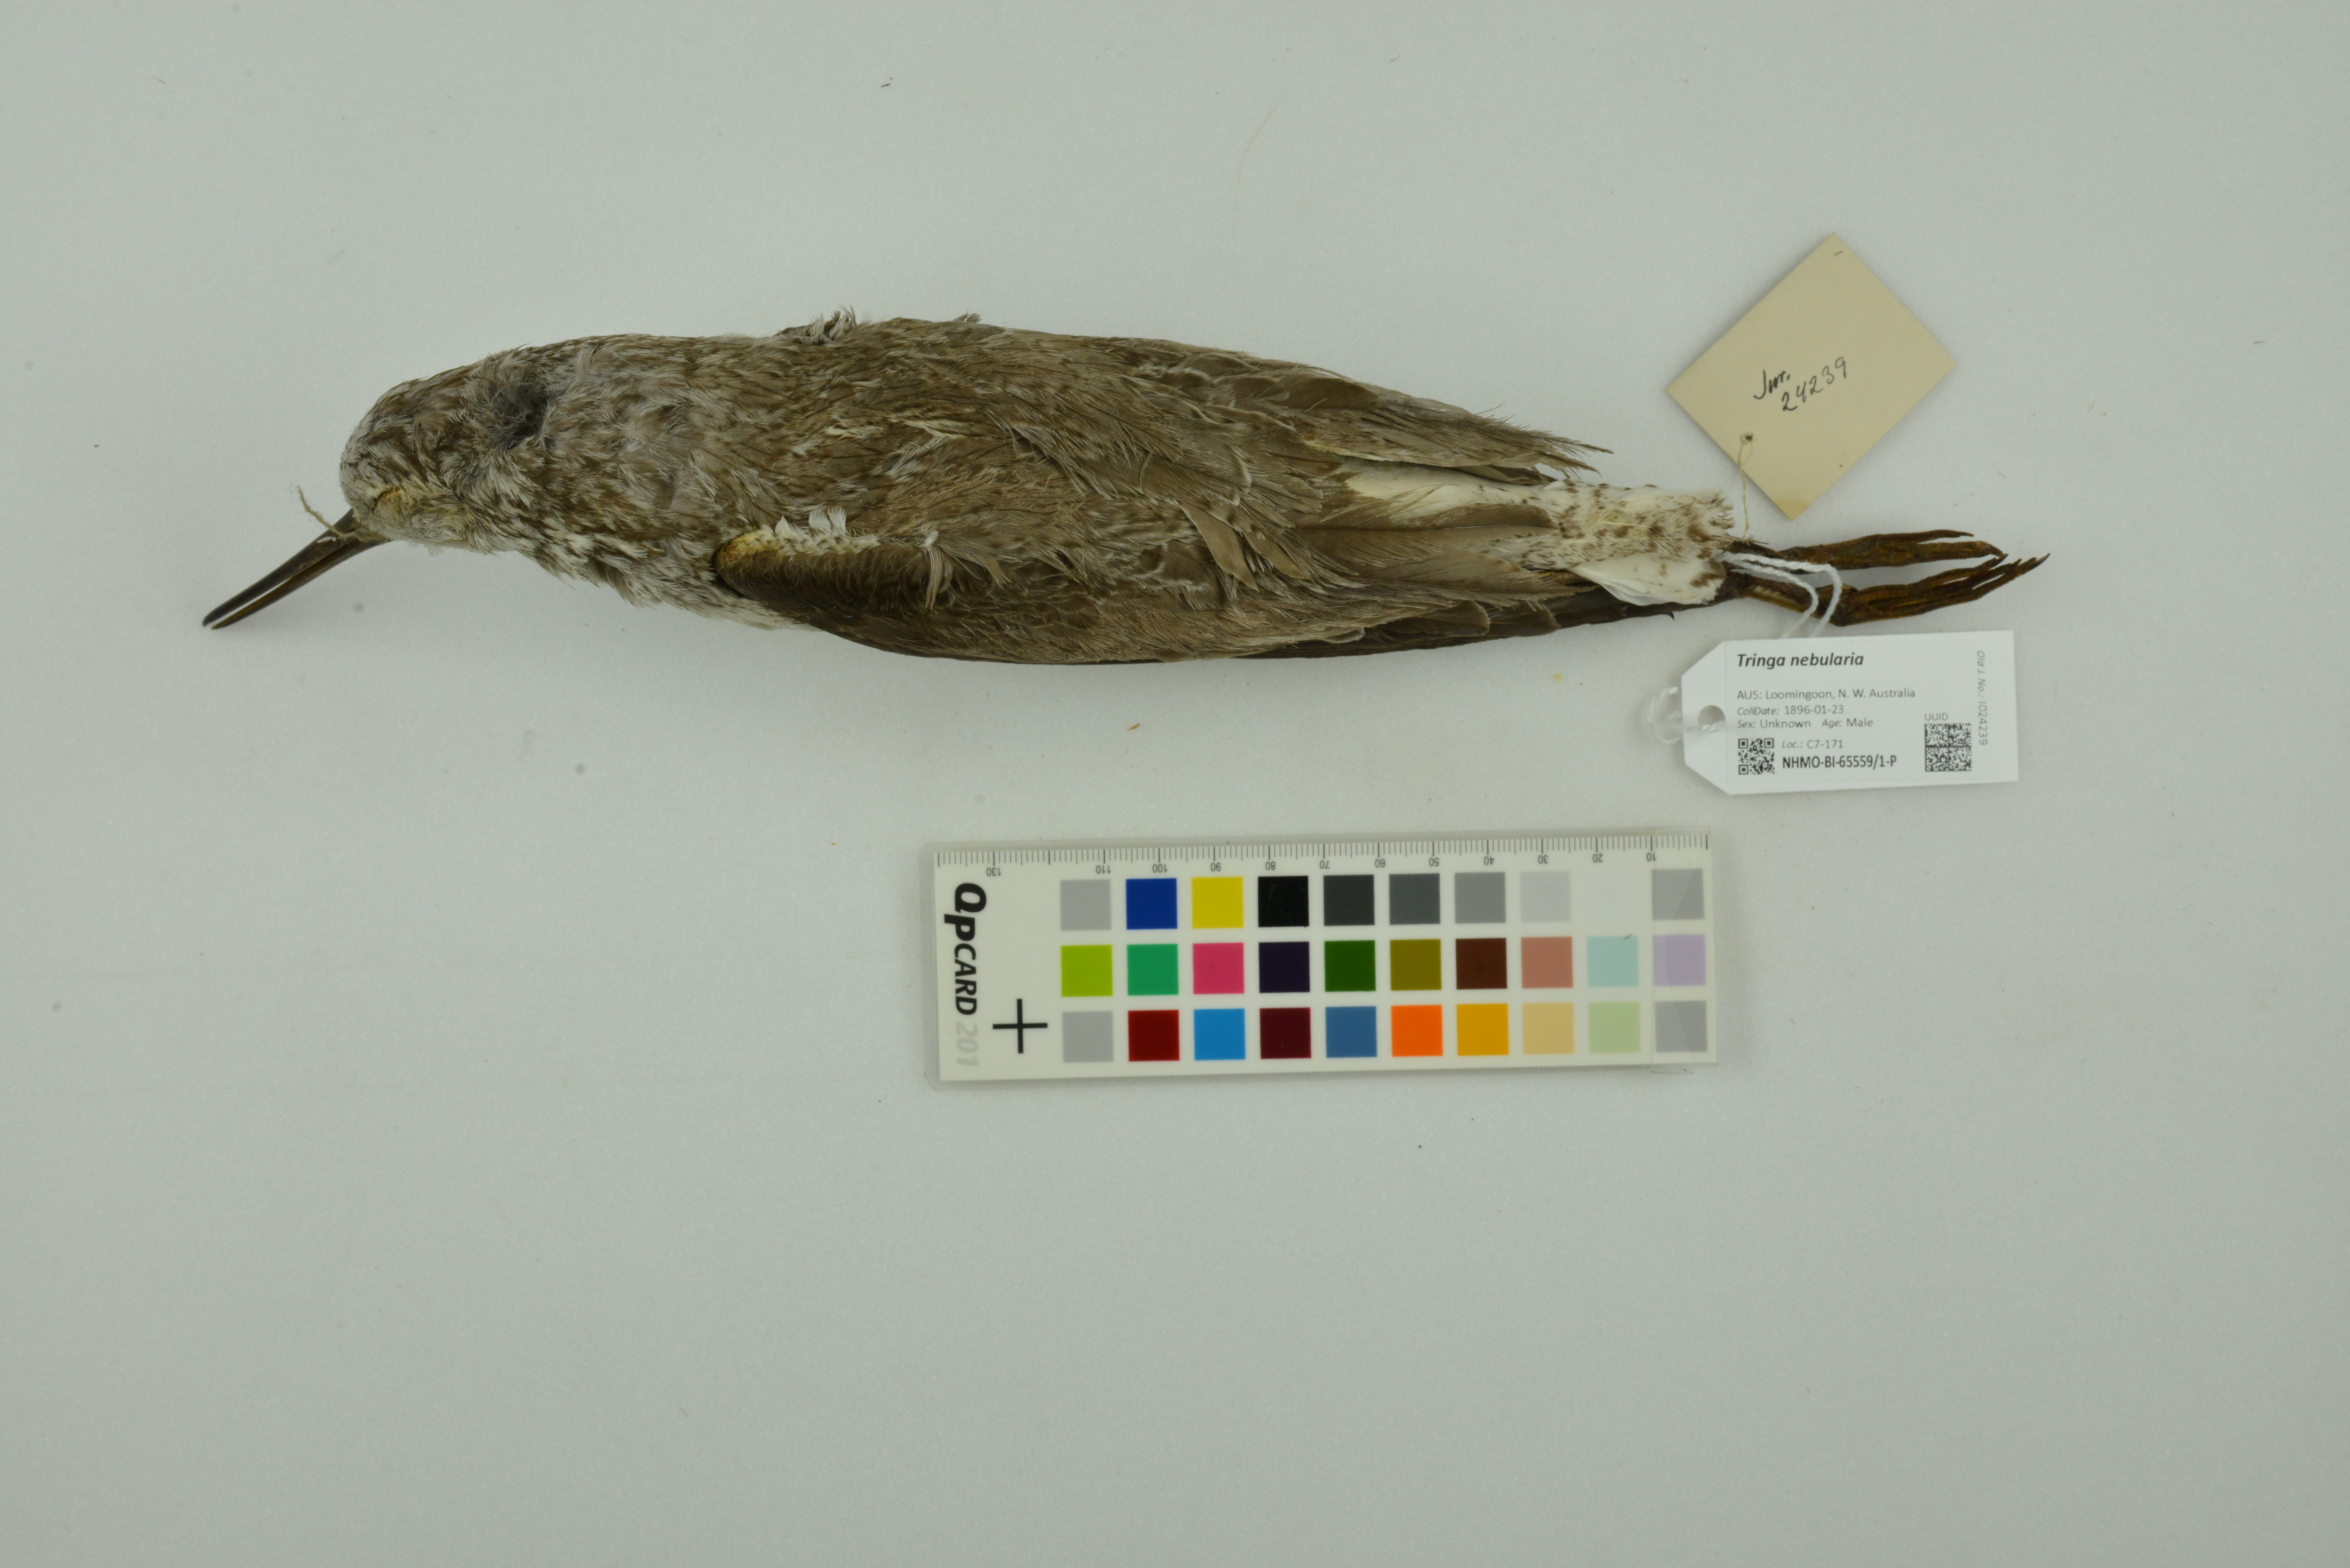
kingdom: Animalia
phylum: Chordata
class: Aves
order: Charadriiformes
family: Scolopacidae
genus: Tringa
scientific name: Tringa nebularia
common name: Common greenshank
